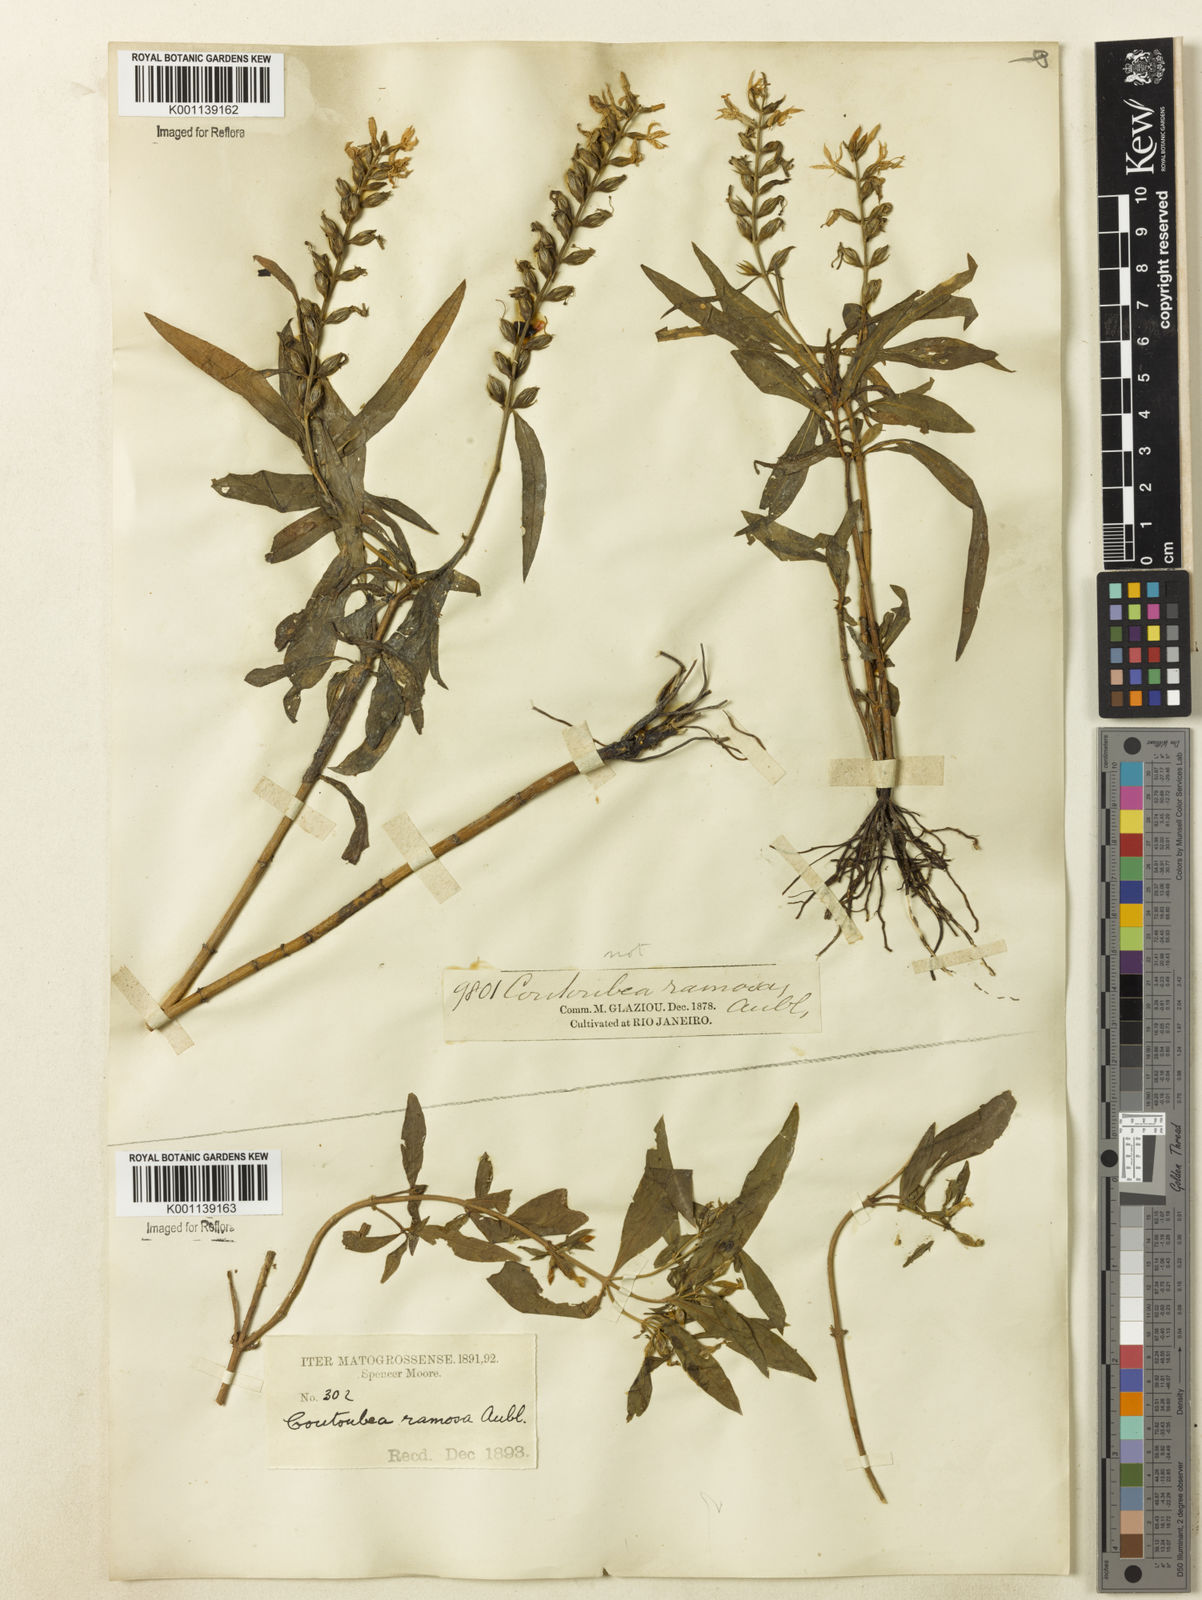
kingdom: Plantae
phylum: Tracheophyta
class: Magnoliopsida
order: Gentianales
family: Gentianaceae
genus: Coutoubea
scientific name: Coutoubea ramosa
